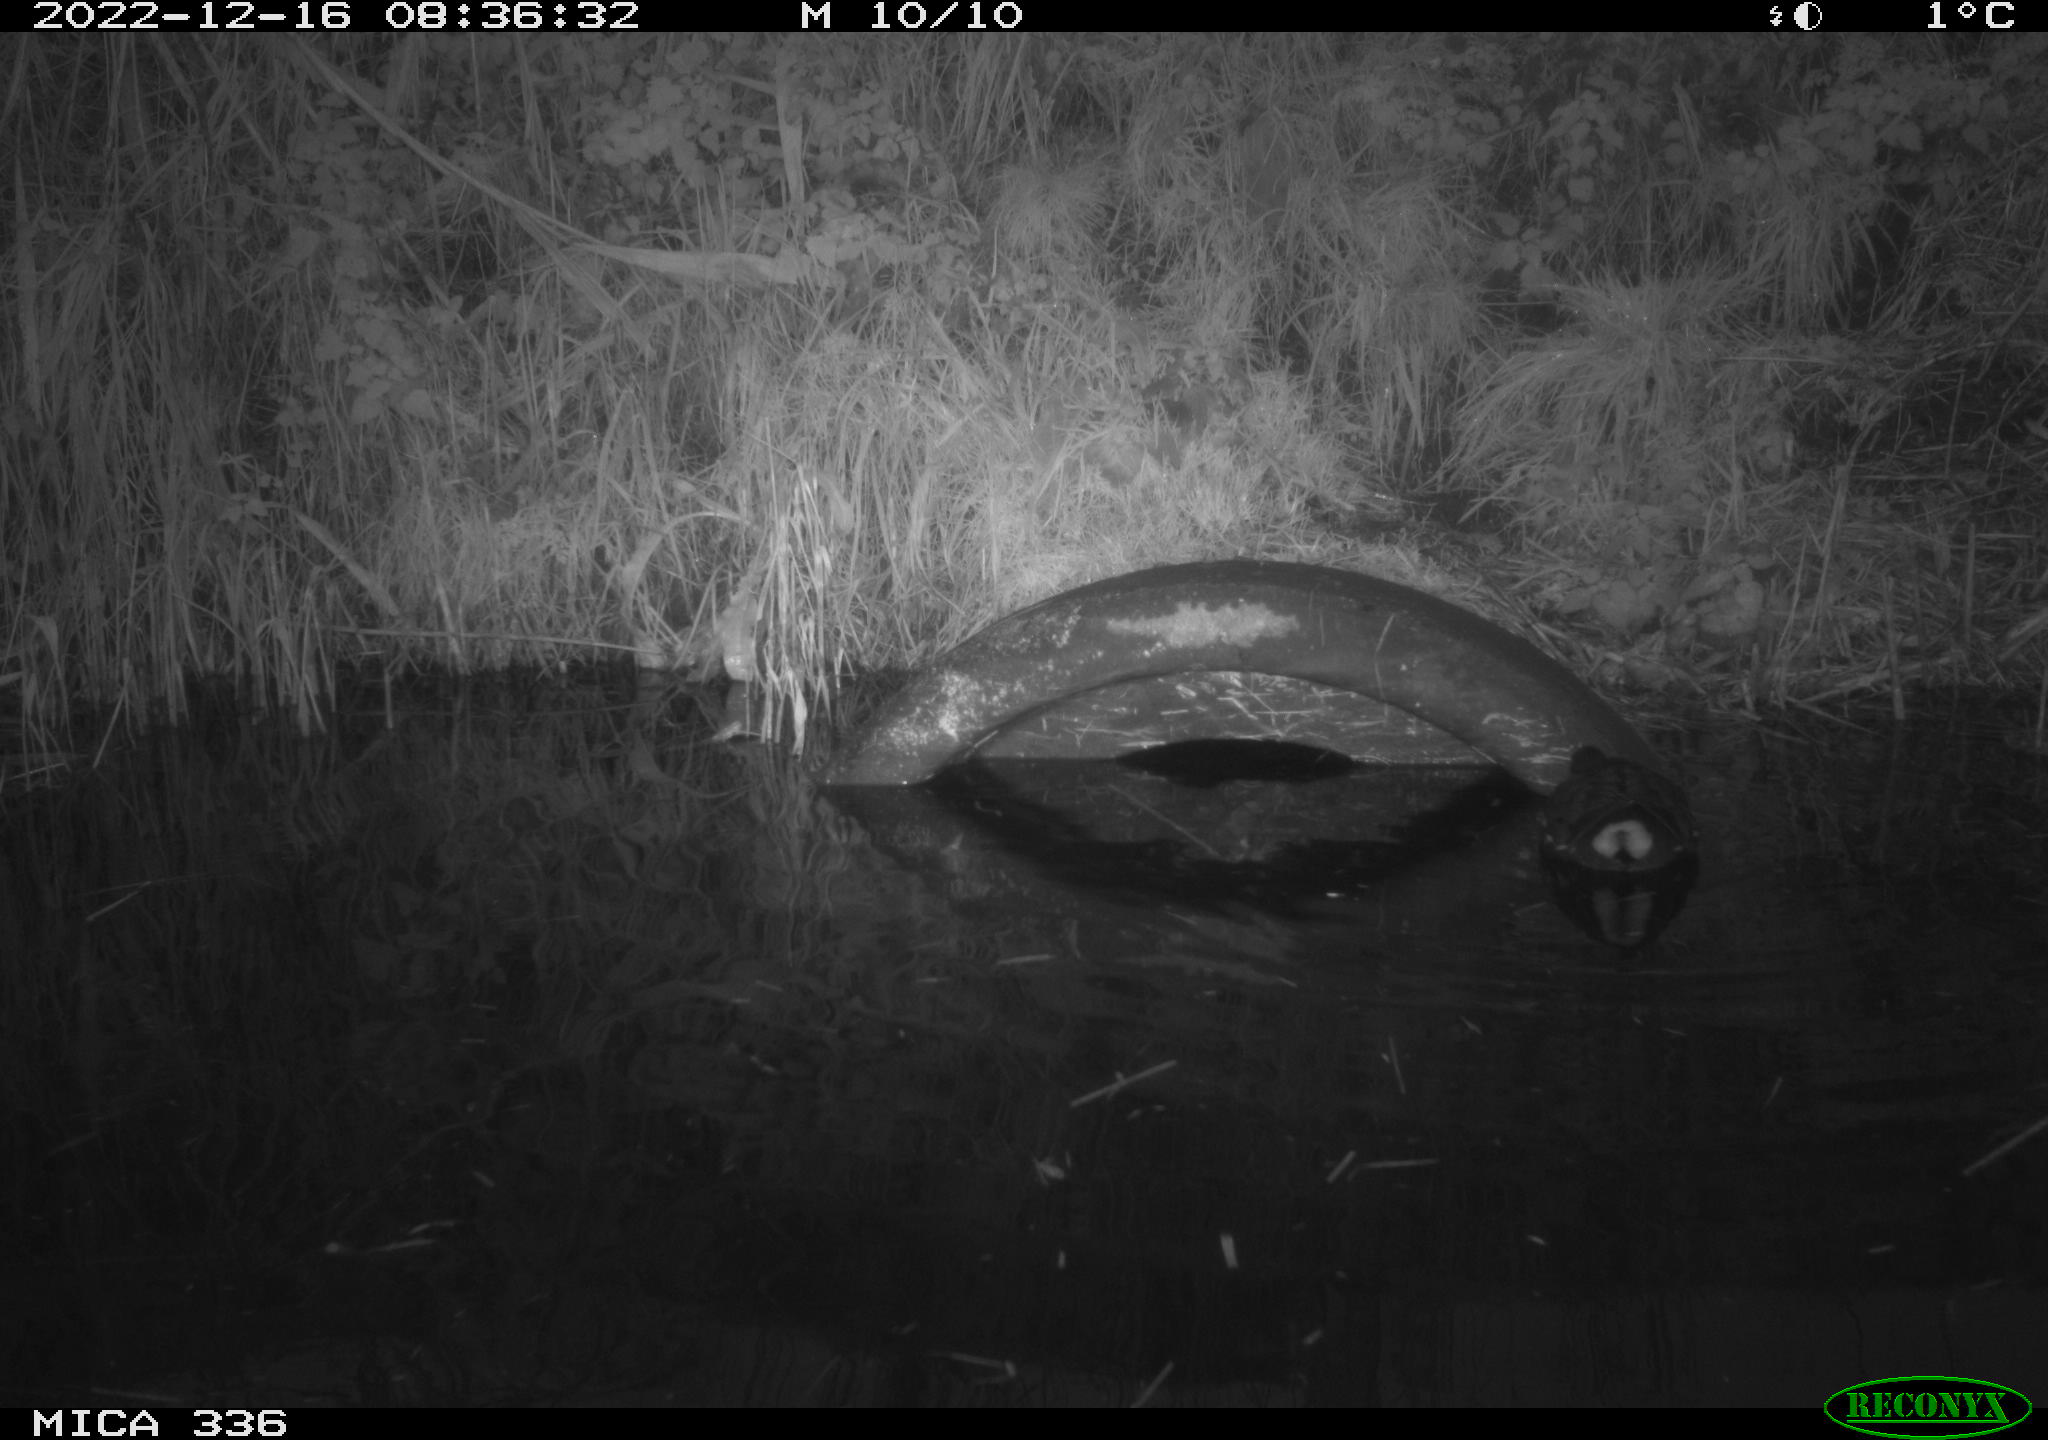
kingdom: Animalia
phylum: Chordata
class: Aves
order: Gruiformes
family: Rallidae
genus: Gallinula
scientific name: Gallinula chloropus
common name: Common moorhen
